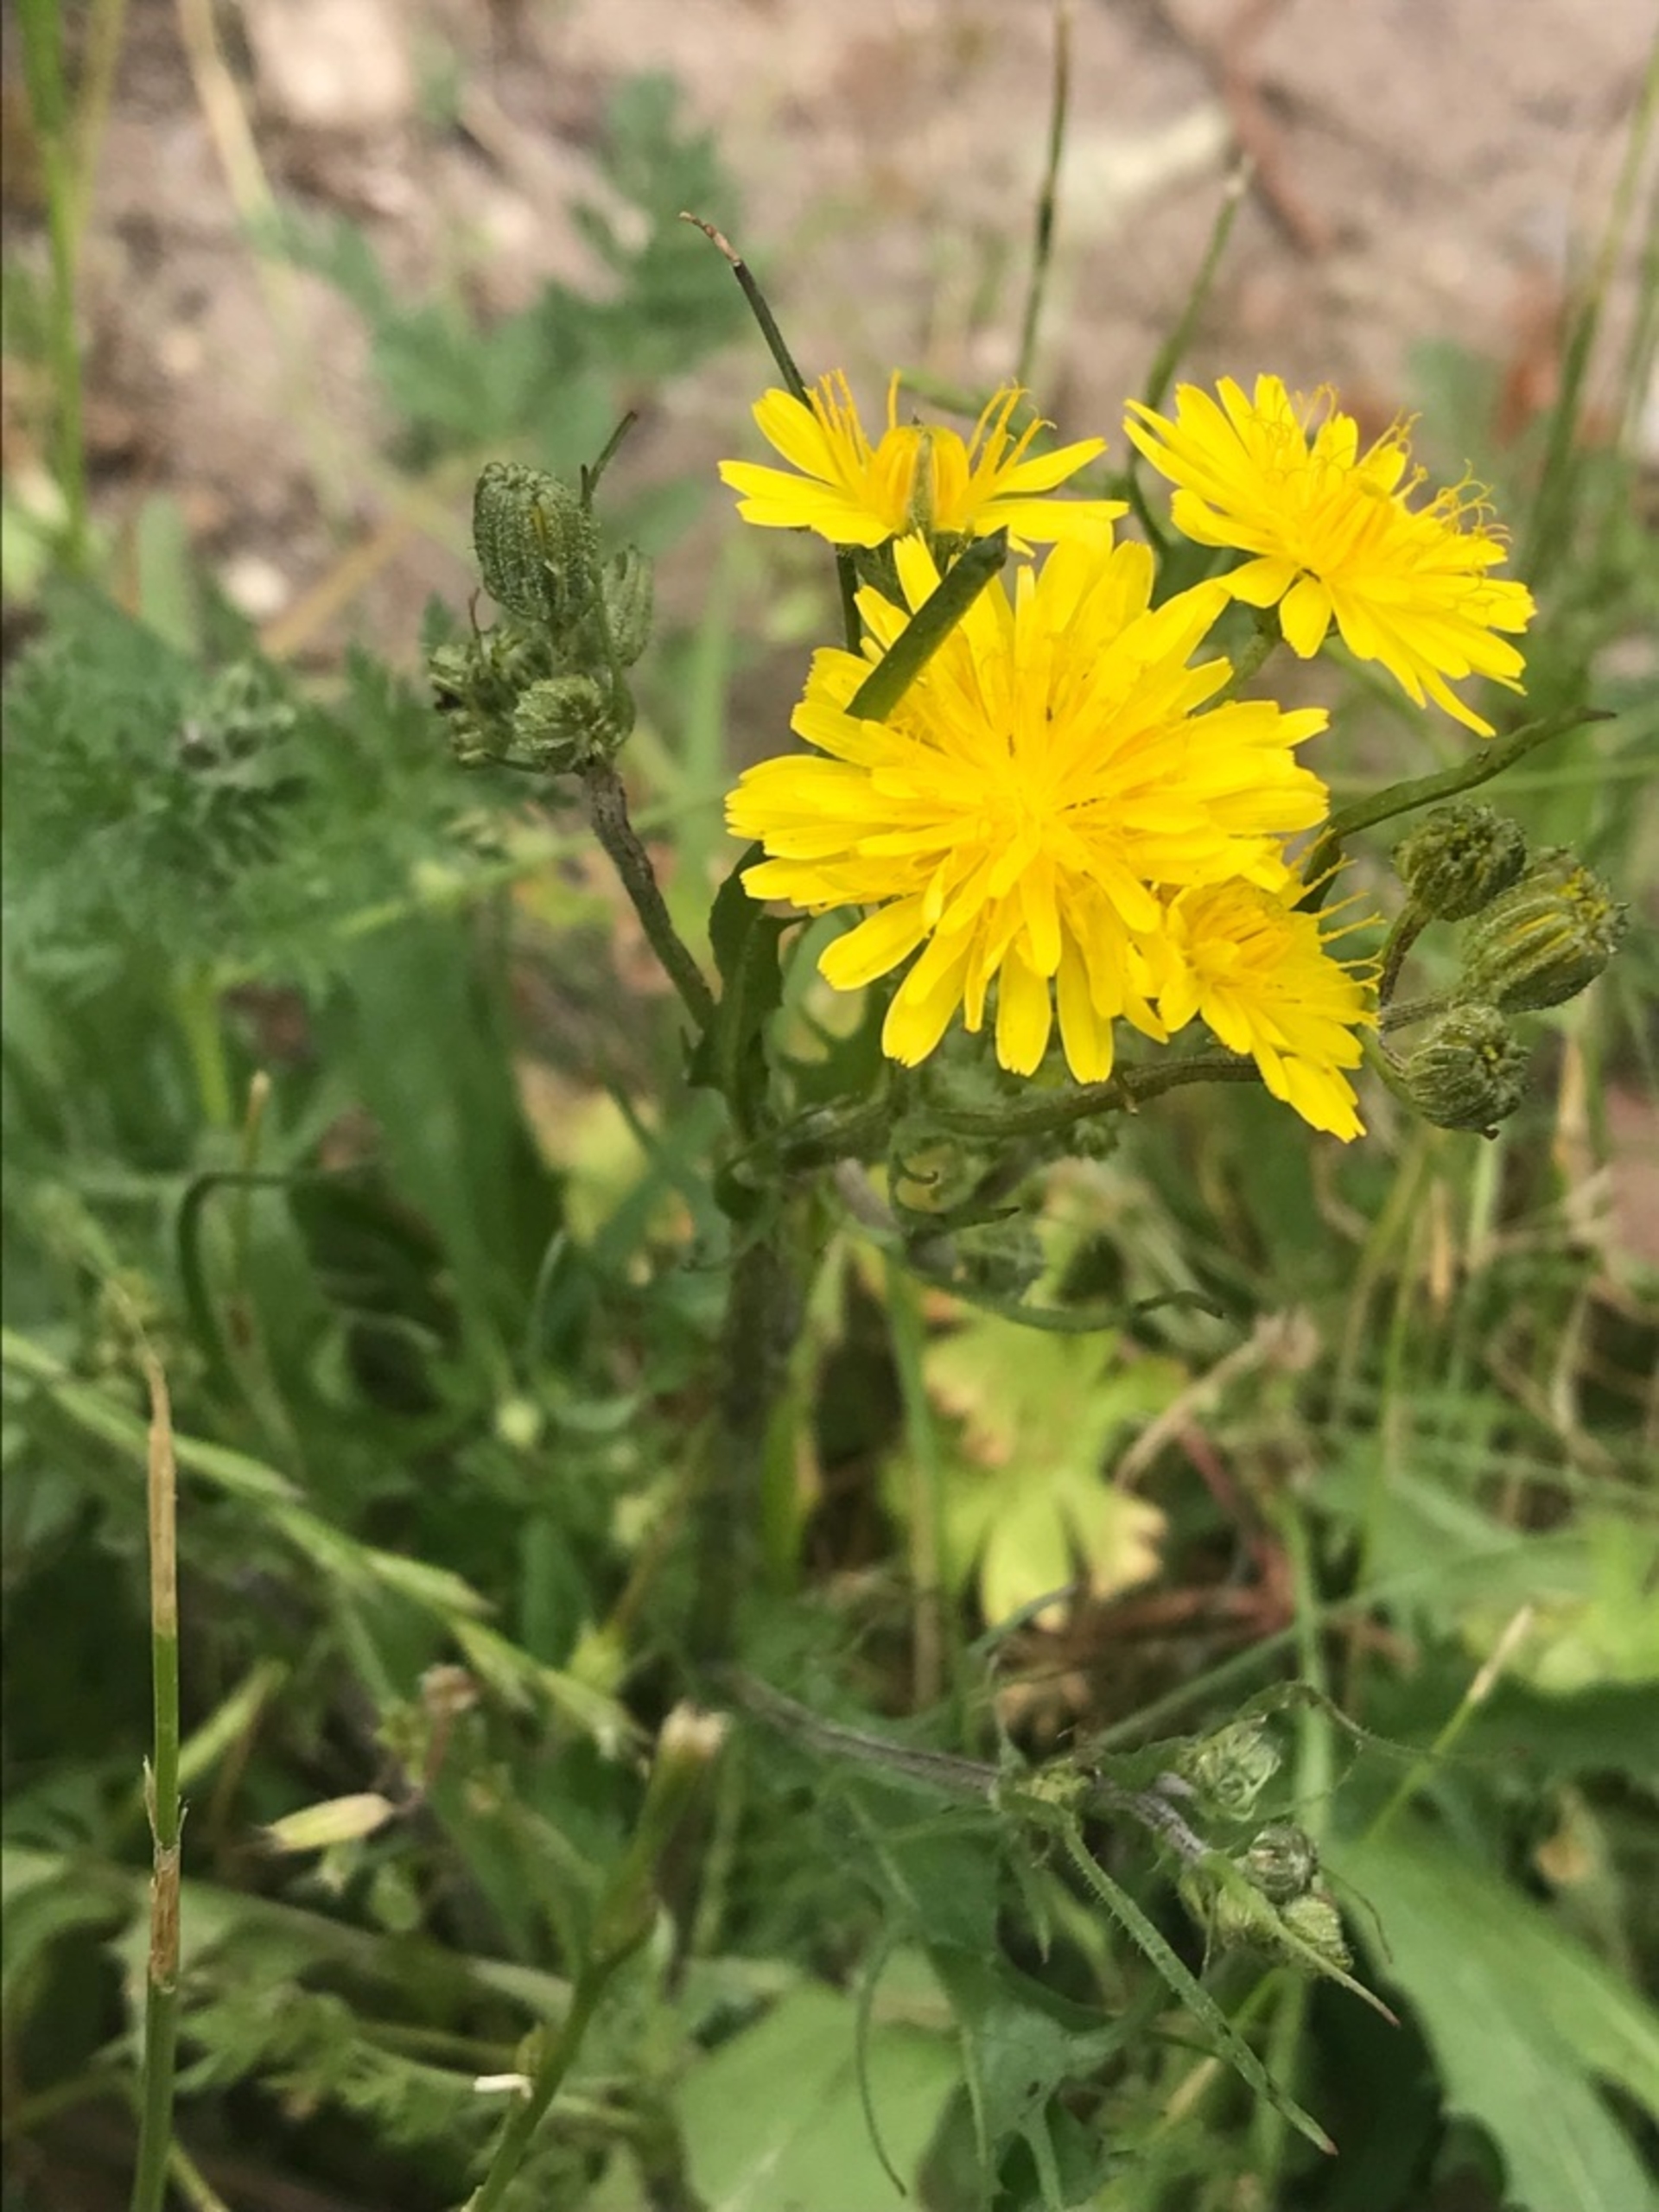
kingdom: Plantae
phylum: Tracheophyta
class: Magnoliopsida
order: Asterales
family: Asteraceae
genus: Crepis
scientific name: Crepis capillaris
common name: Grøn høgeskæg
